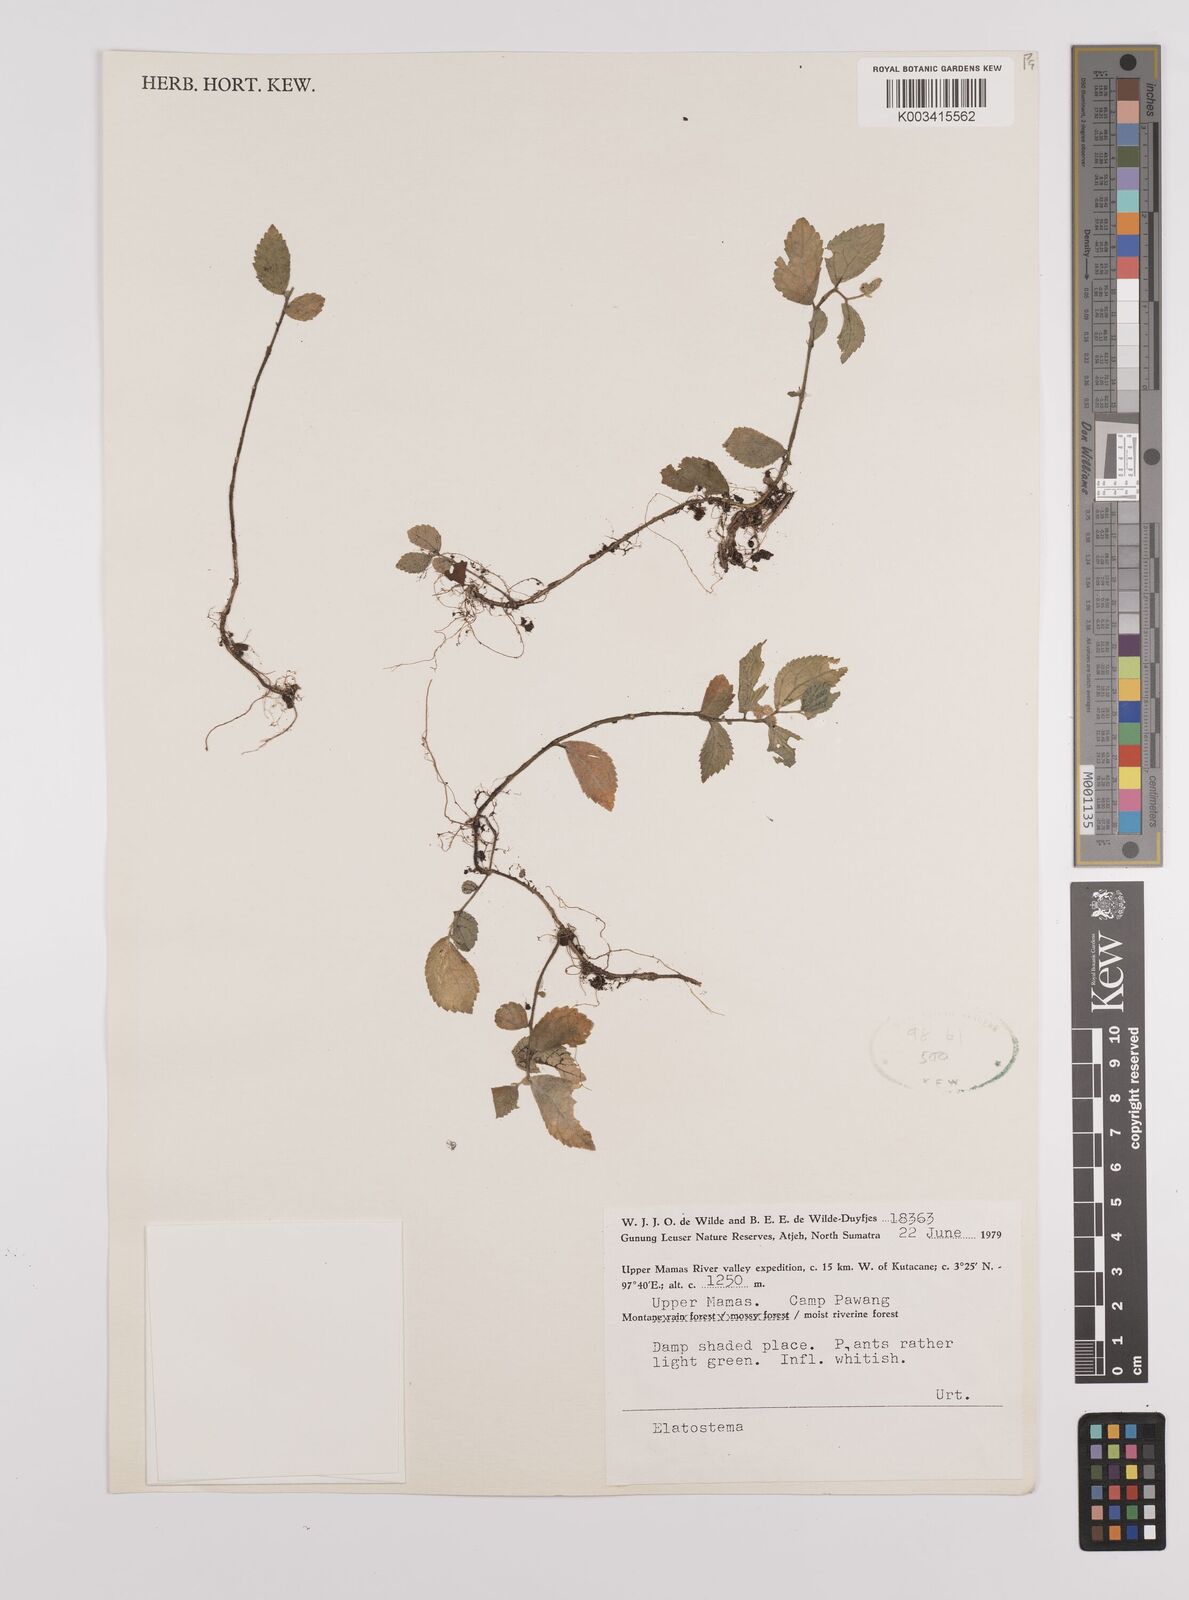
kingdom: Plantae
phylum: Tracheophyta
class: Magnoliopsida
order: Rosales
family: Urticaceae
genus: Elatostema
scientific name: Elatostema
